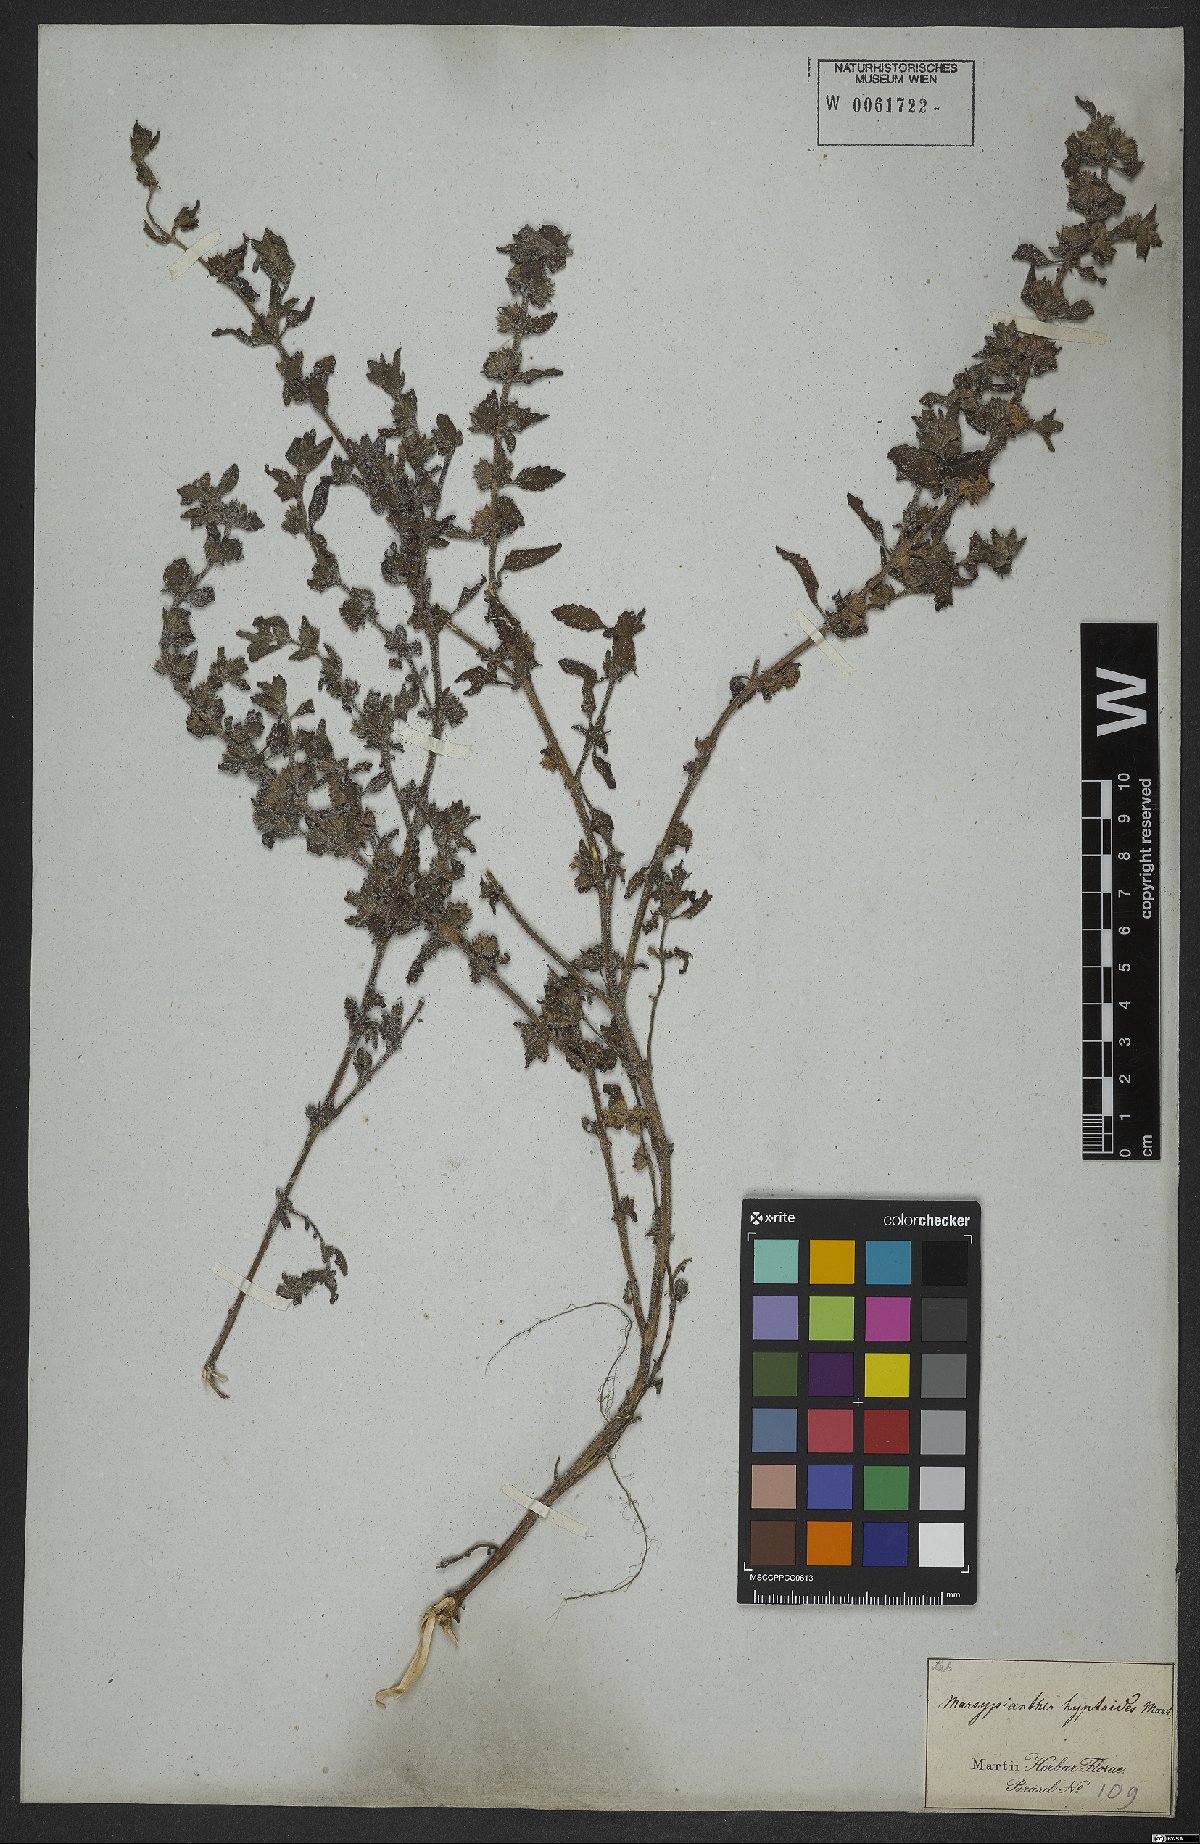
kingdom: Plantae
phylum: Tracheophyta
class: Magnoliopsida
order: Lamiales
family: Lamiaceae
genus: Marsypianthes
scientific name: Marsypianthes chamaedrys
